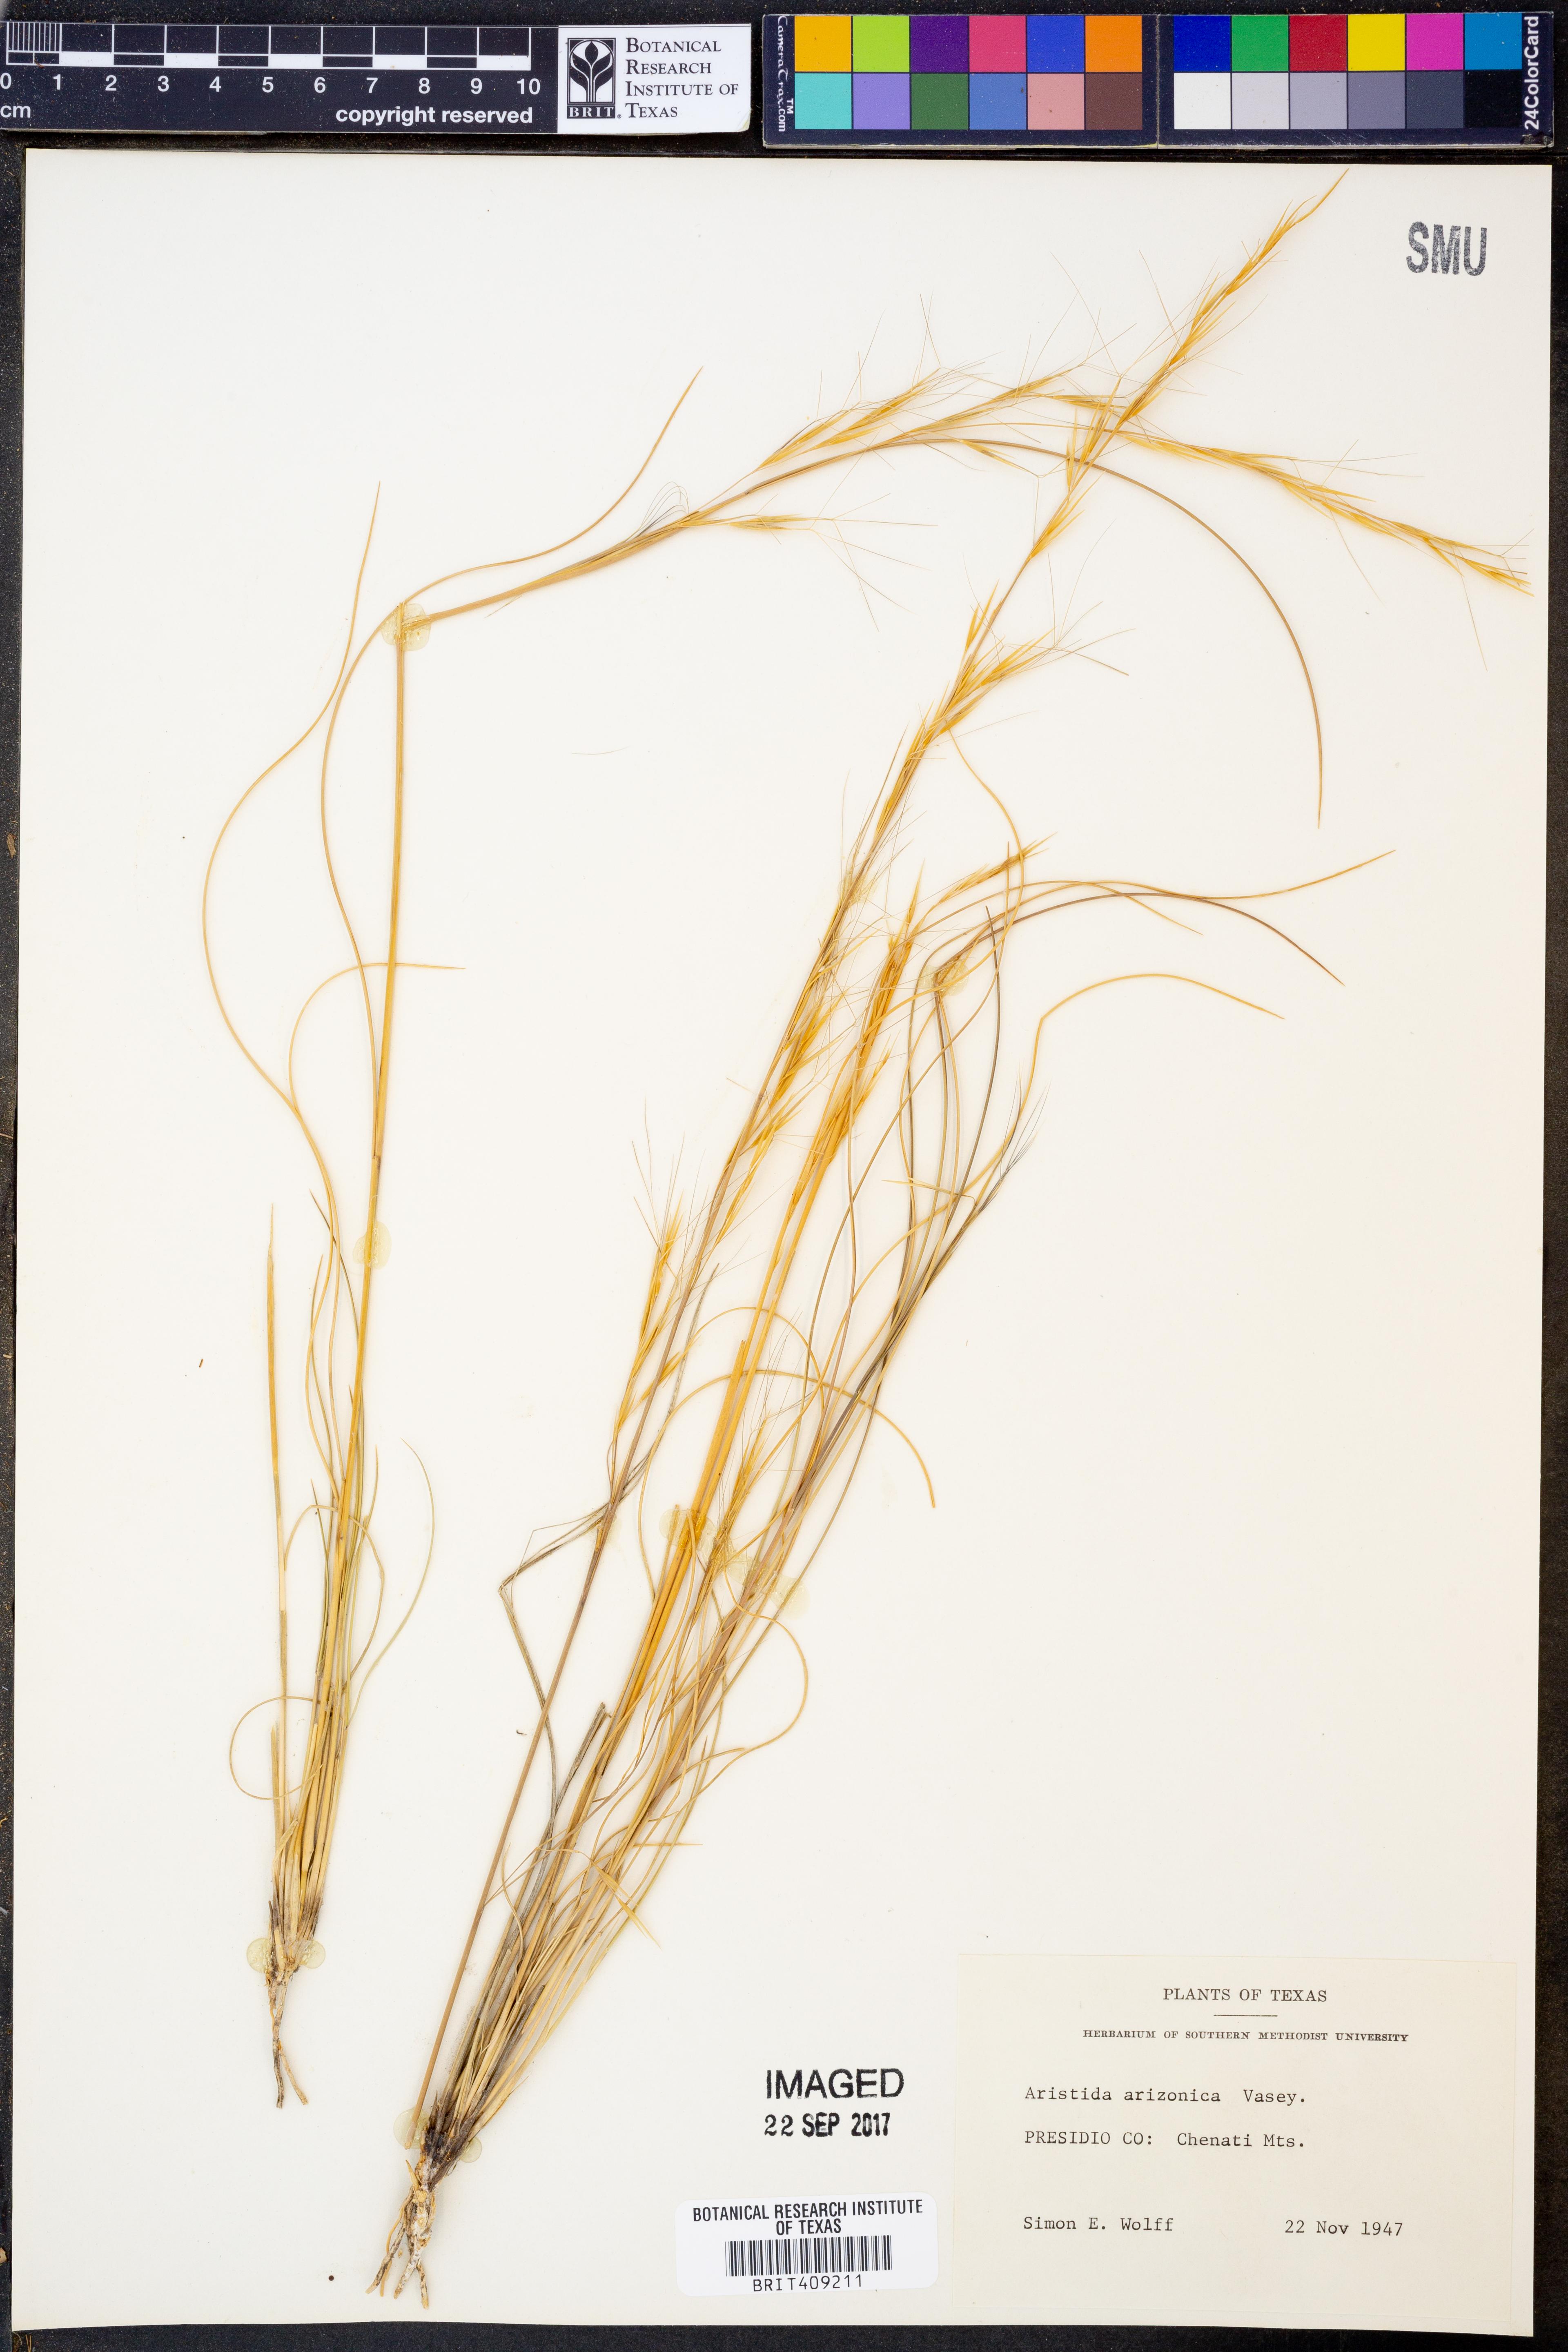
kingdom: Plantae
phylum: Tracheophyta
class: Liliopsida
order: Poales
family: Poaceae
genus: Aristida
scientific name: Aristida arizonica
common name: Arizona threeawn
